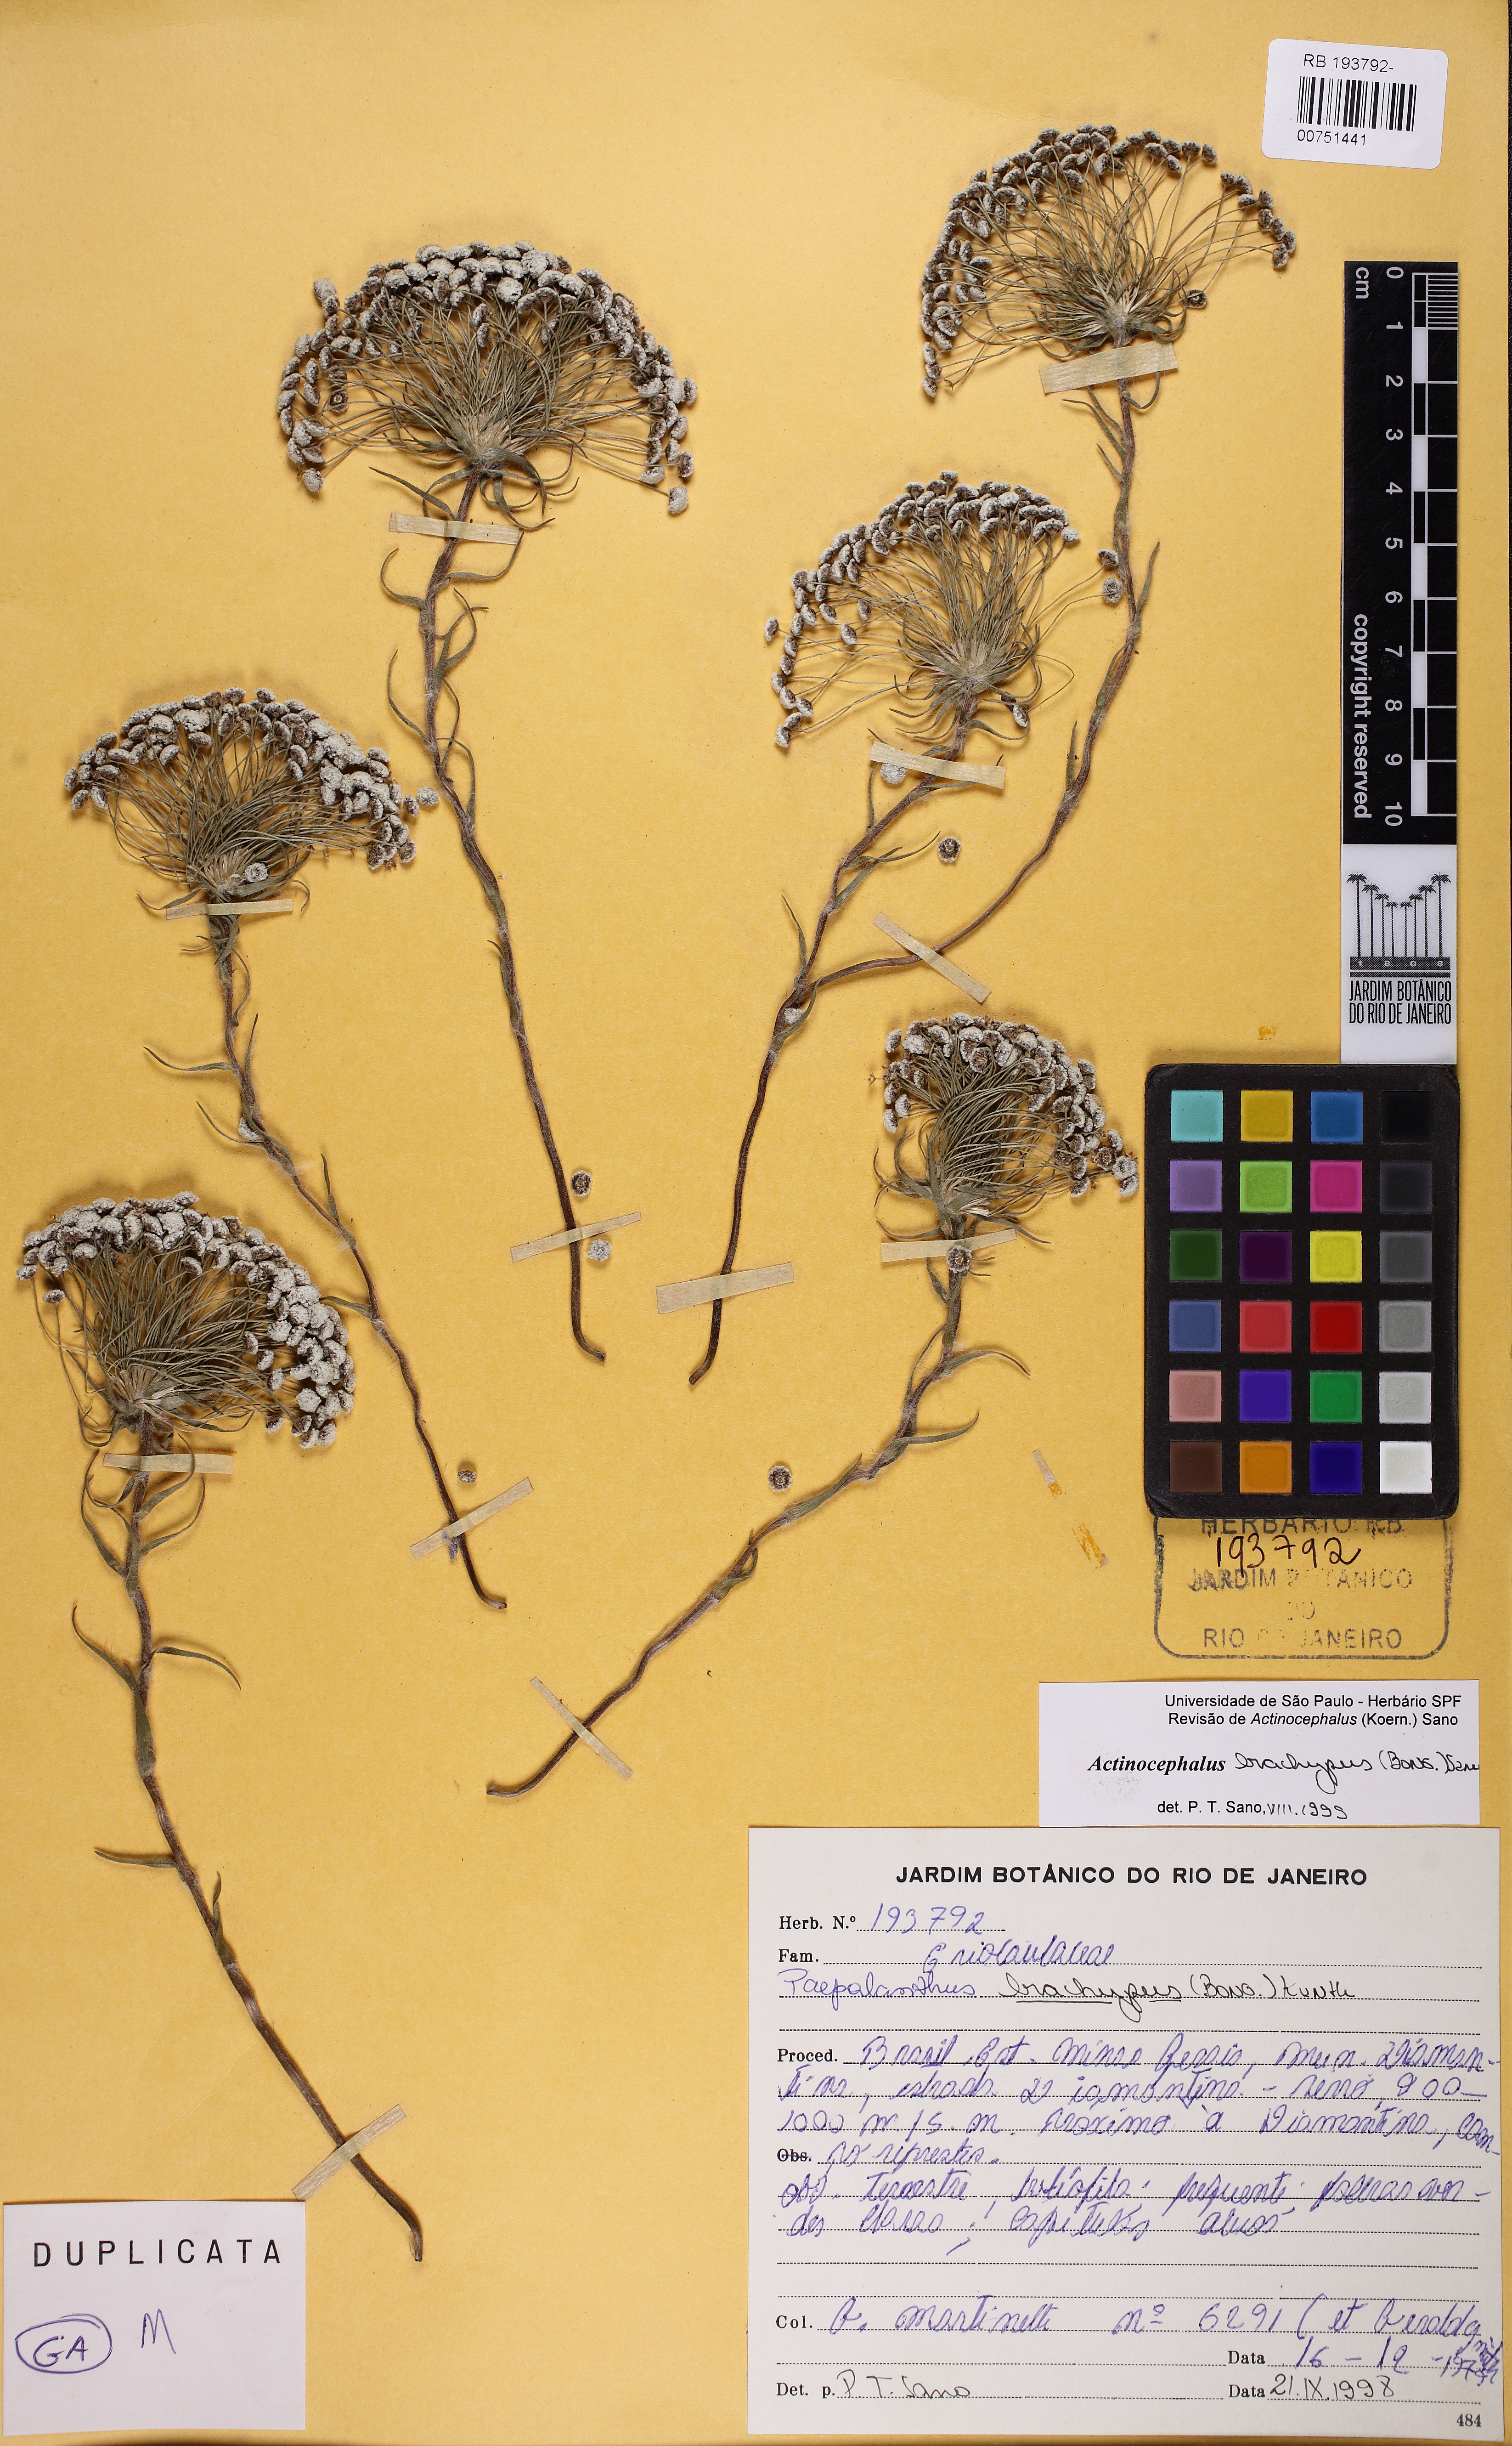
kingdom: Plantae
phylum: Tracheophyta
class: Liliopsida
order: Poales
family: Eriocaulaceae
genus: Paepalanthus
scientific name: Paepalanthus brachypus
